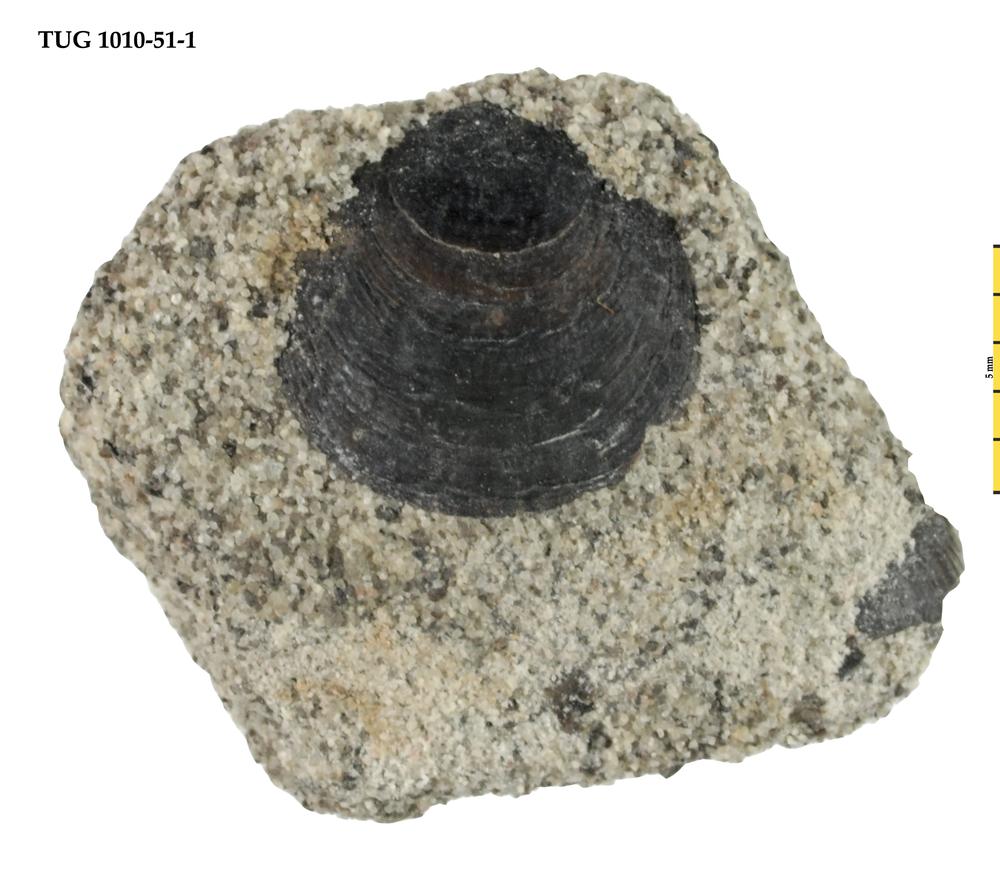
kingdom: Animalia
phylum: Brachiopoda
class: Lingulata
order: Lingulida
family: Obolidae
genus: Obolus
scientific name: Obolus inornatus
